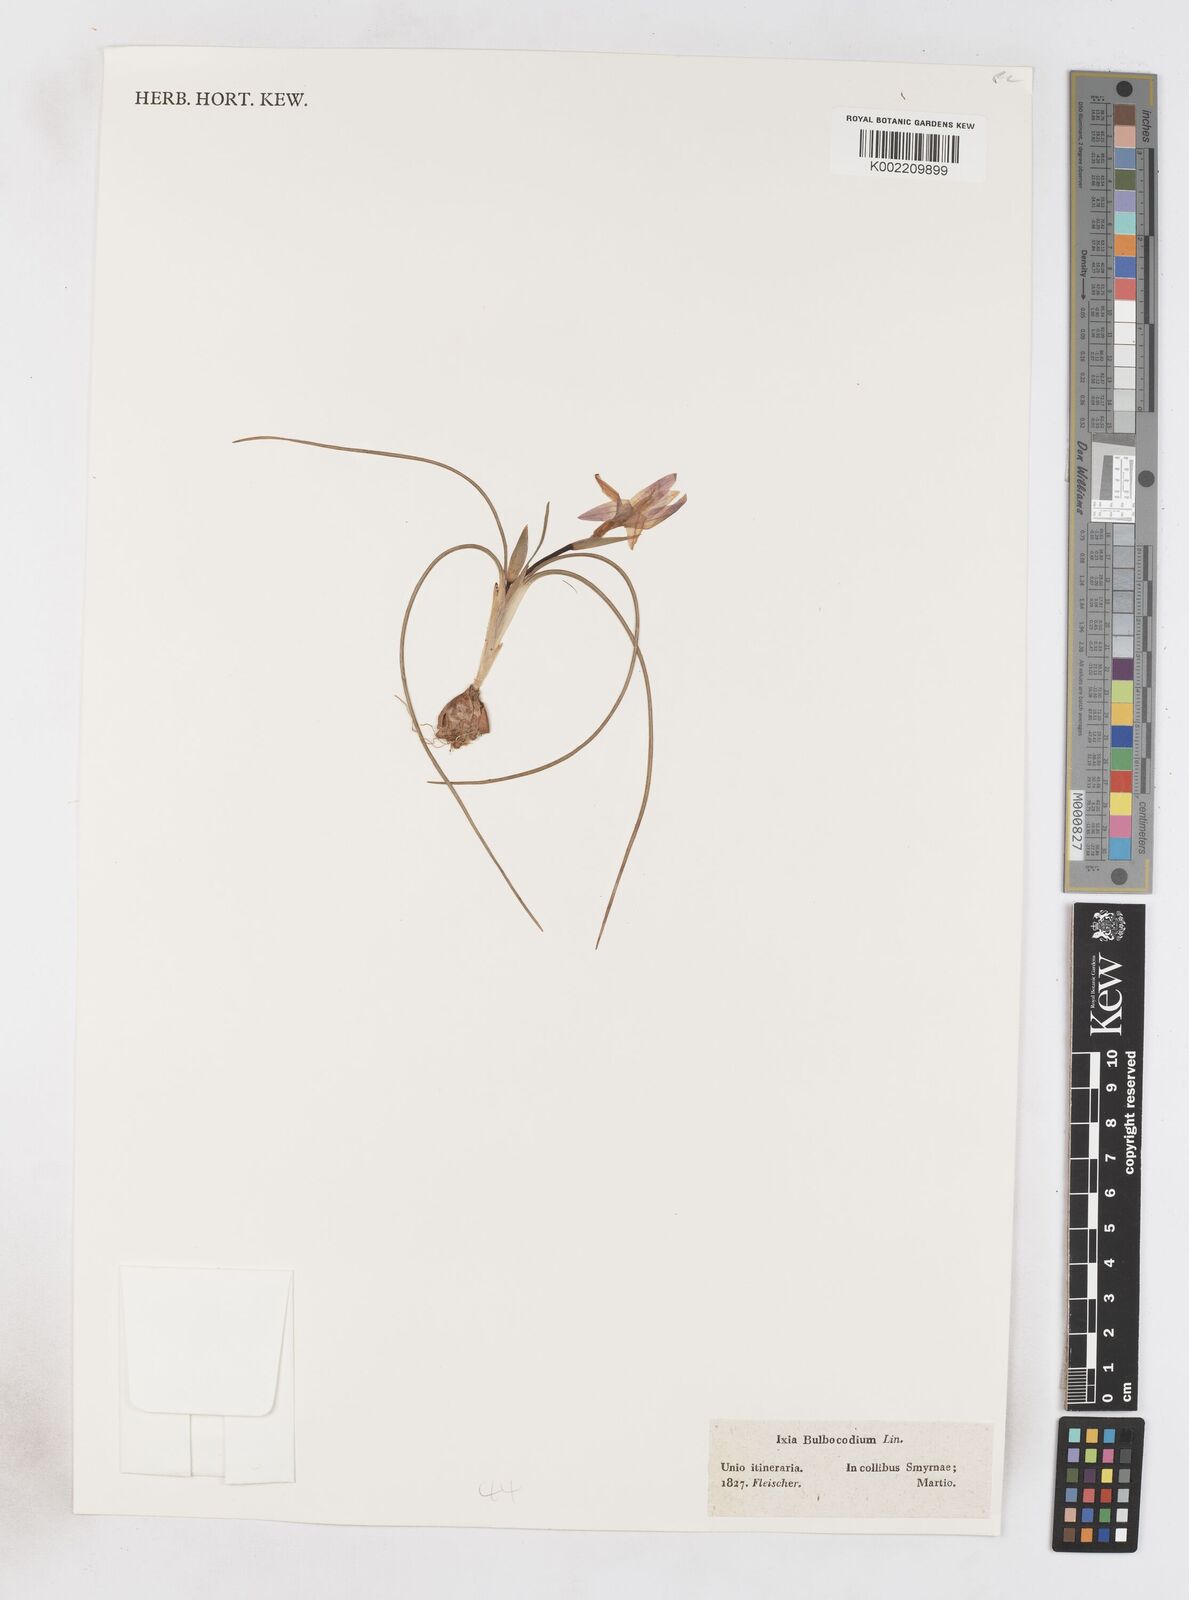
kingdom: Plantae
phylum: Tracheophyta
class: Liliopsida
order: Asparagales
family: Iridaceae
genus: Romulea
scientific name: Romulea bulbocodium
